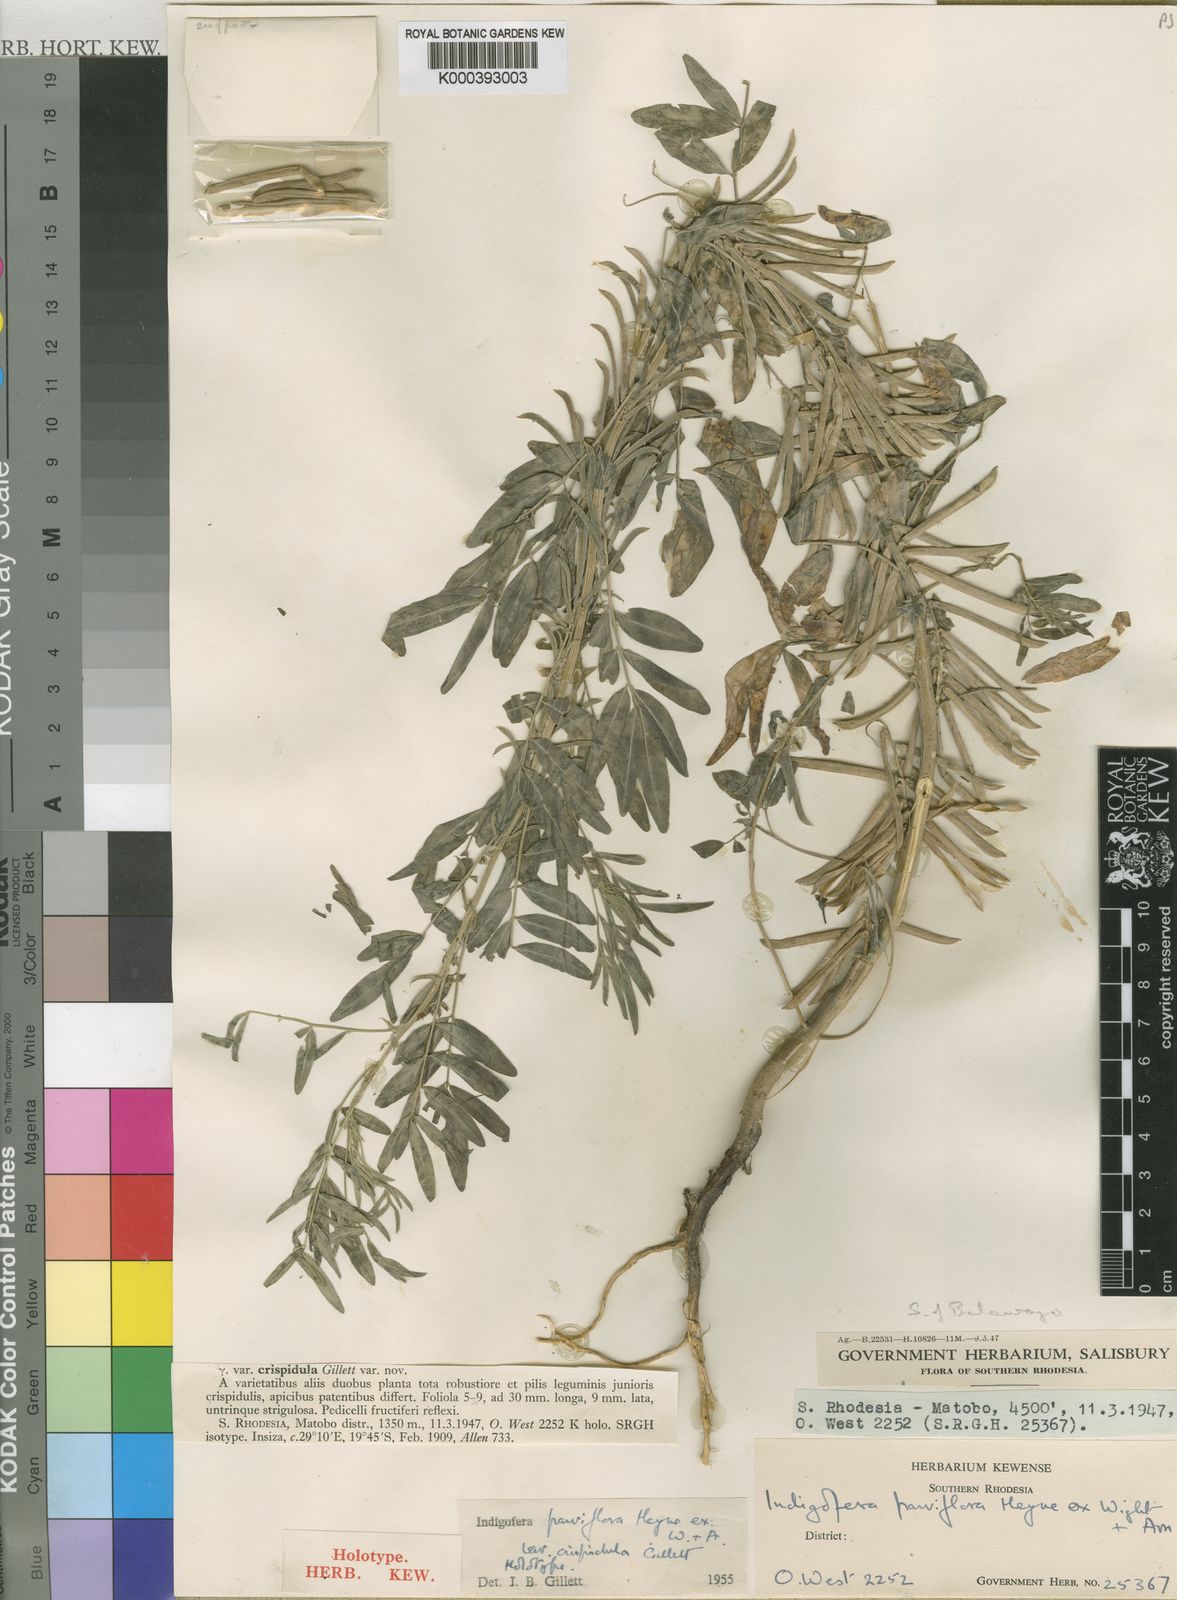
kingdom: Plantae
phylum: Tracheophyta
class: Magnoliopsida
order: Fabales
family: Fabaceae
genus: Indigastrum
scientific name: Indigastrum parviflorum
